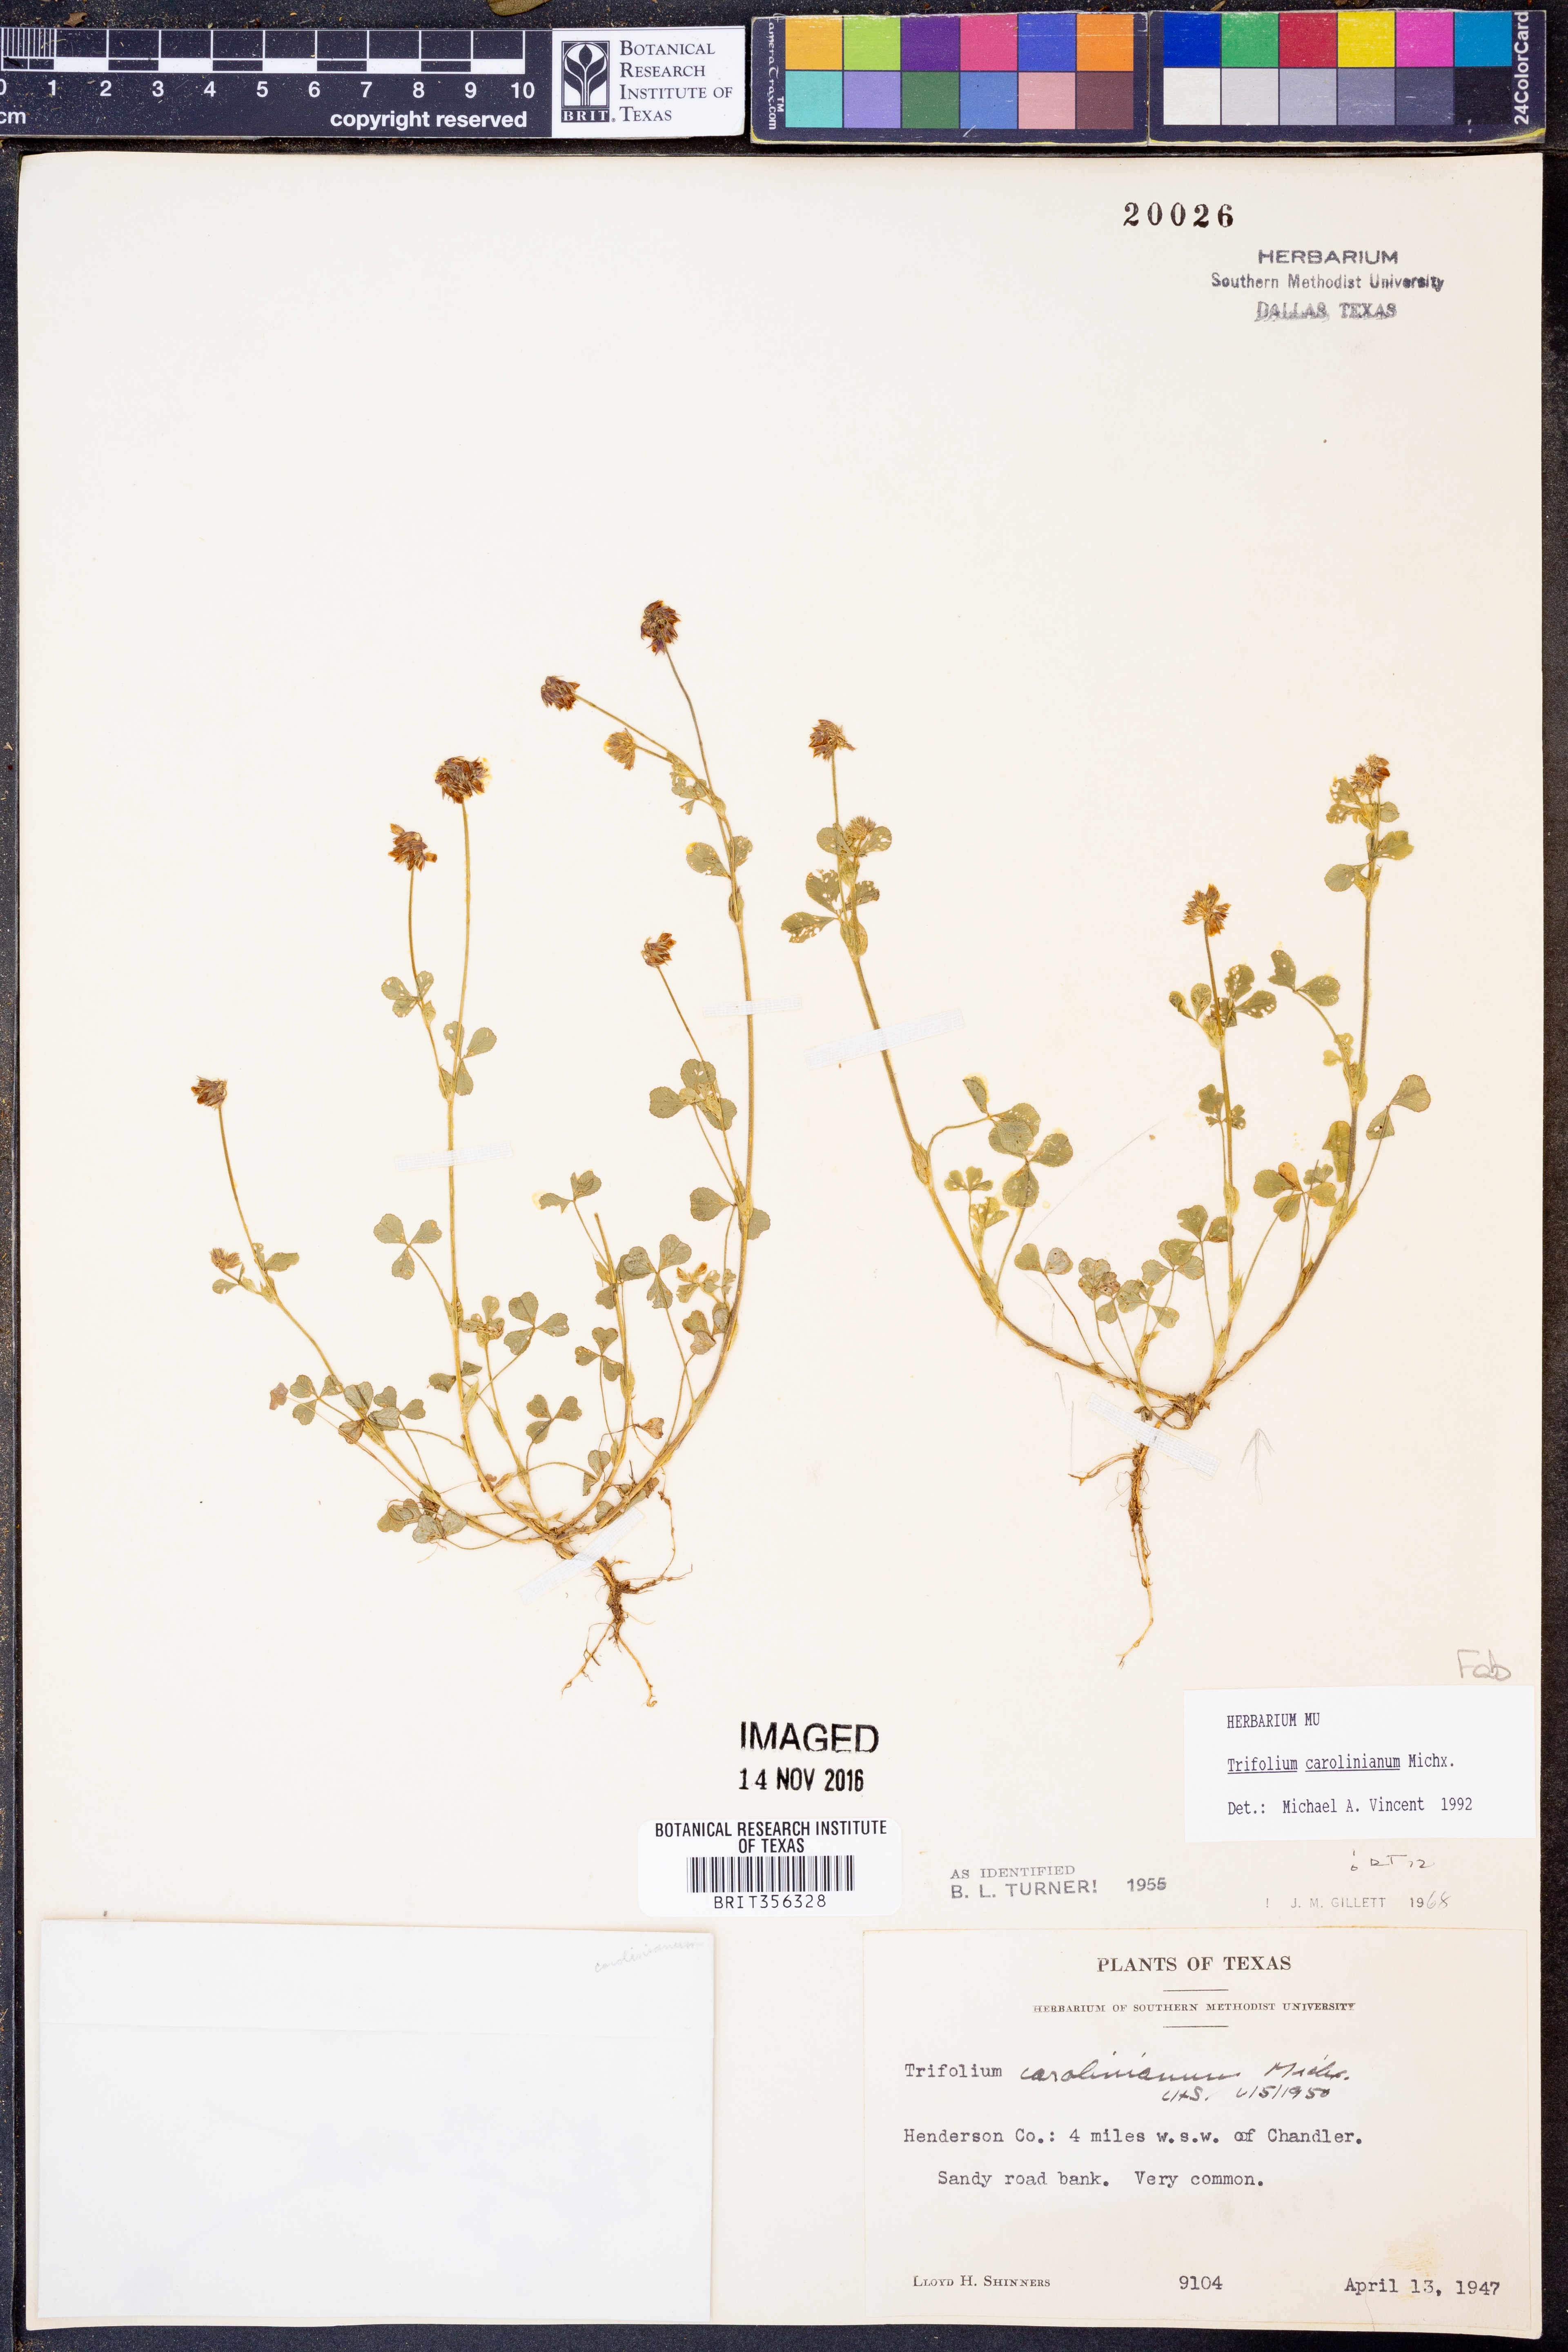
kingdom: Plantae
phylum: Tracheophyta
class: Magnoliopsida
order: Fabales
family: Fabaceae
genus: Trifolium
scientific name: Trifolium carolinianum
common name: Wild white clover
